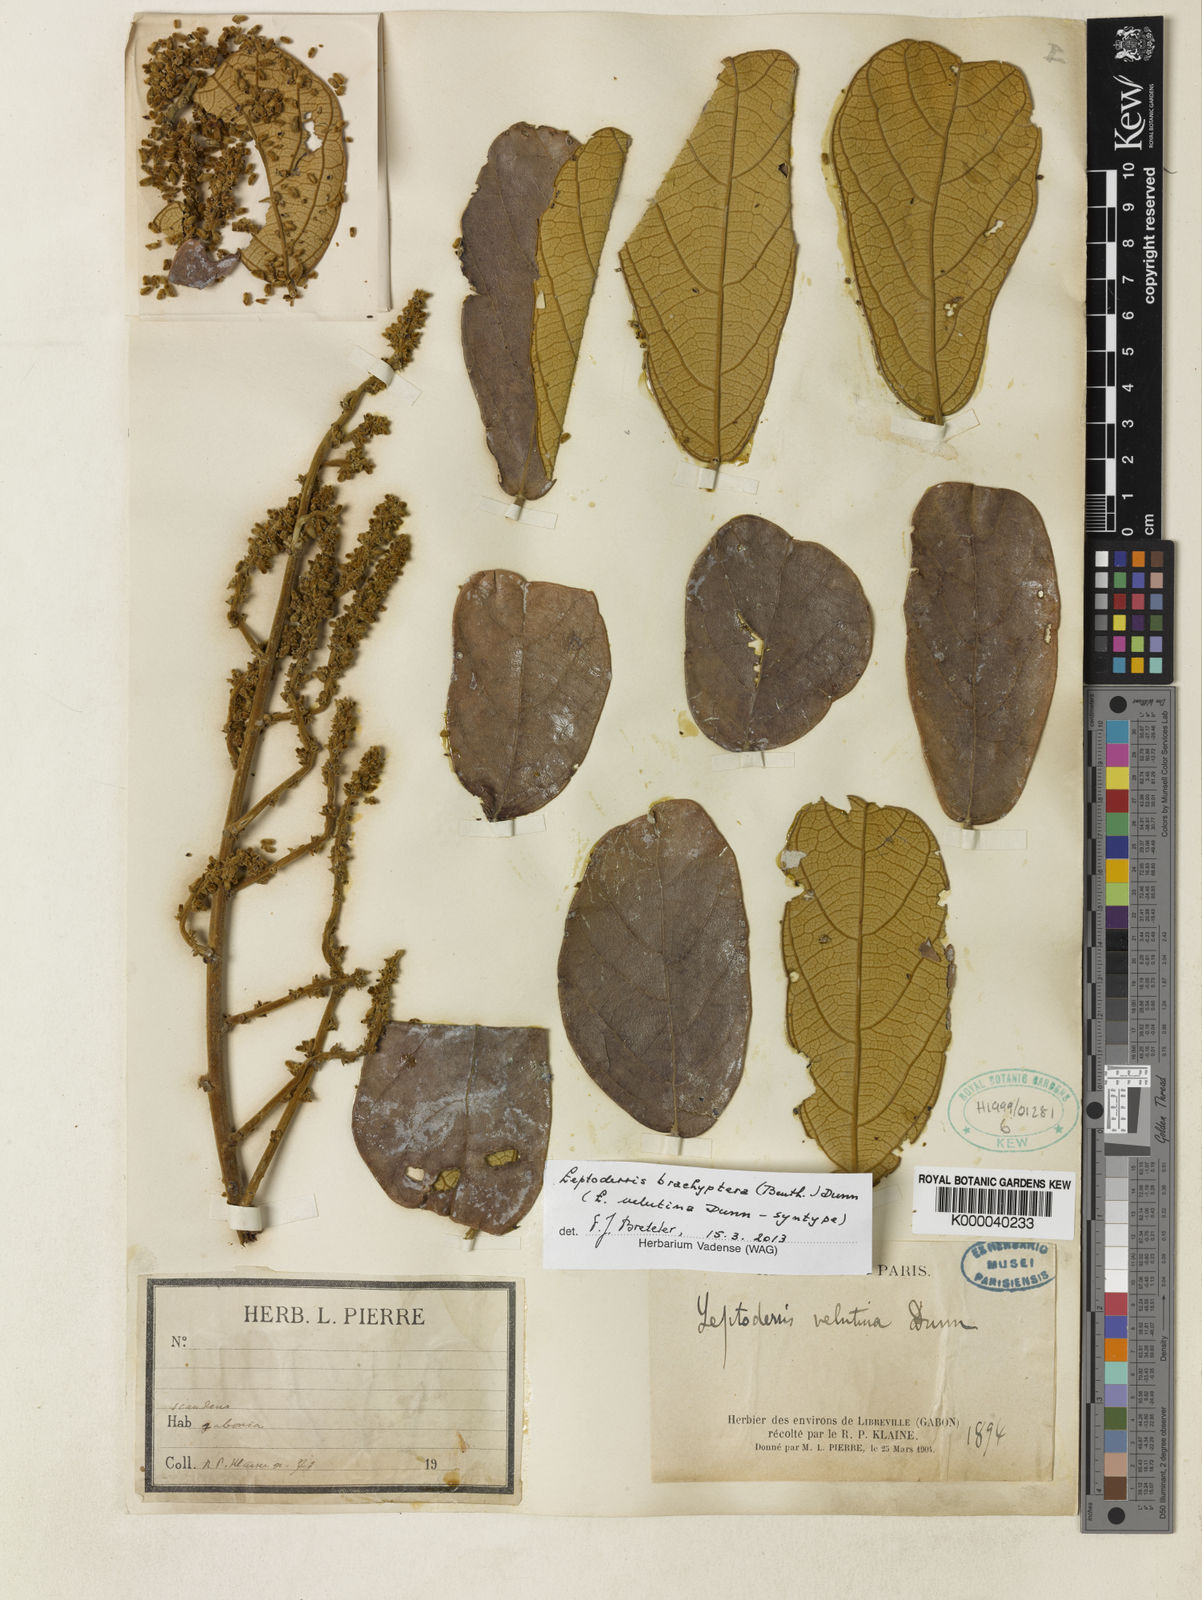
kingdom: Plantae
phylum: Tracheophyta
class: Magnoliopsida
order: Fabales
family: Fabaceae
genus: Leptoderris
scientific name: Leptoderris brachyptera
